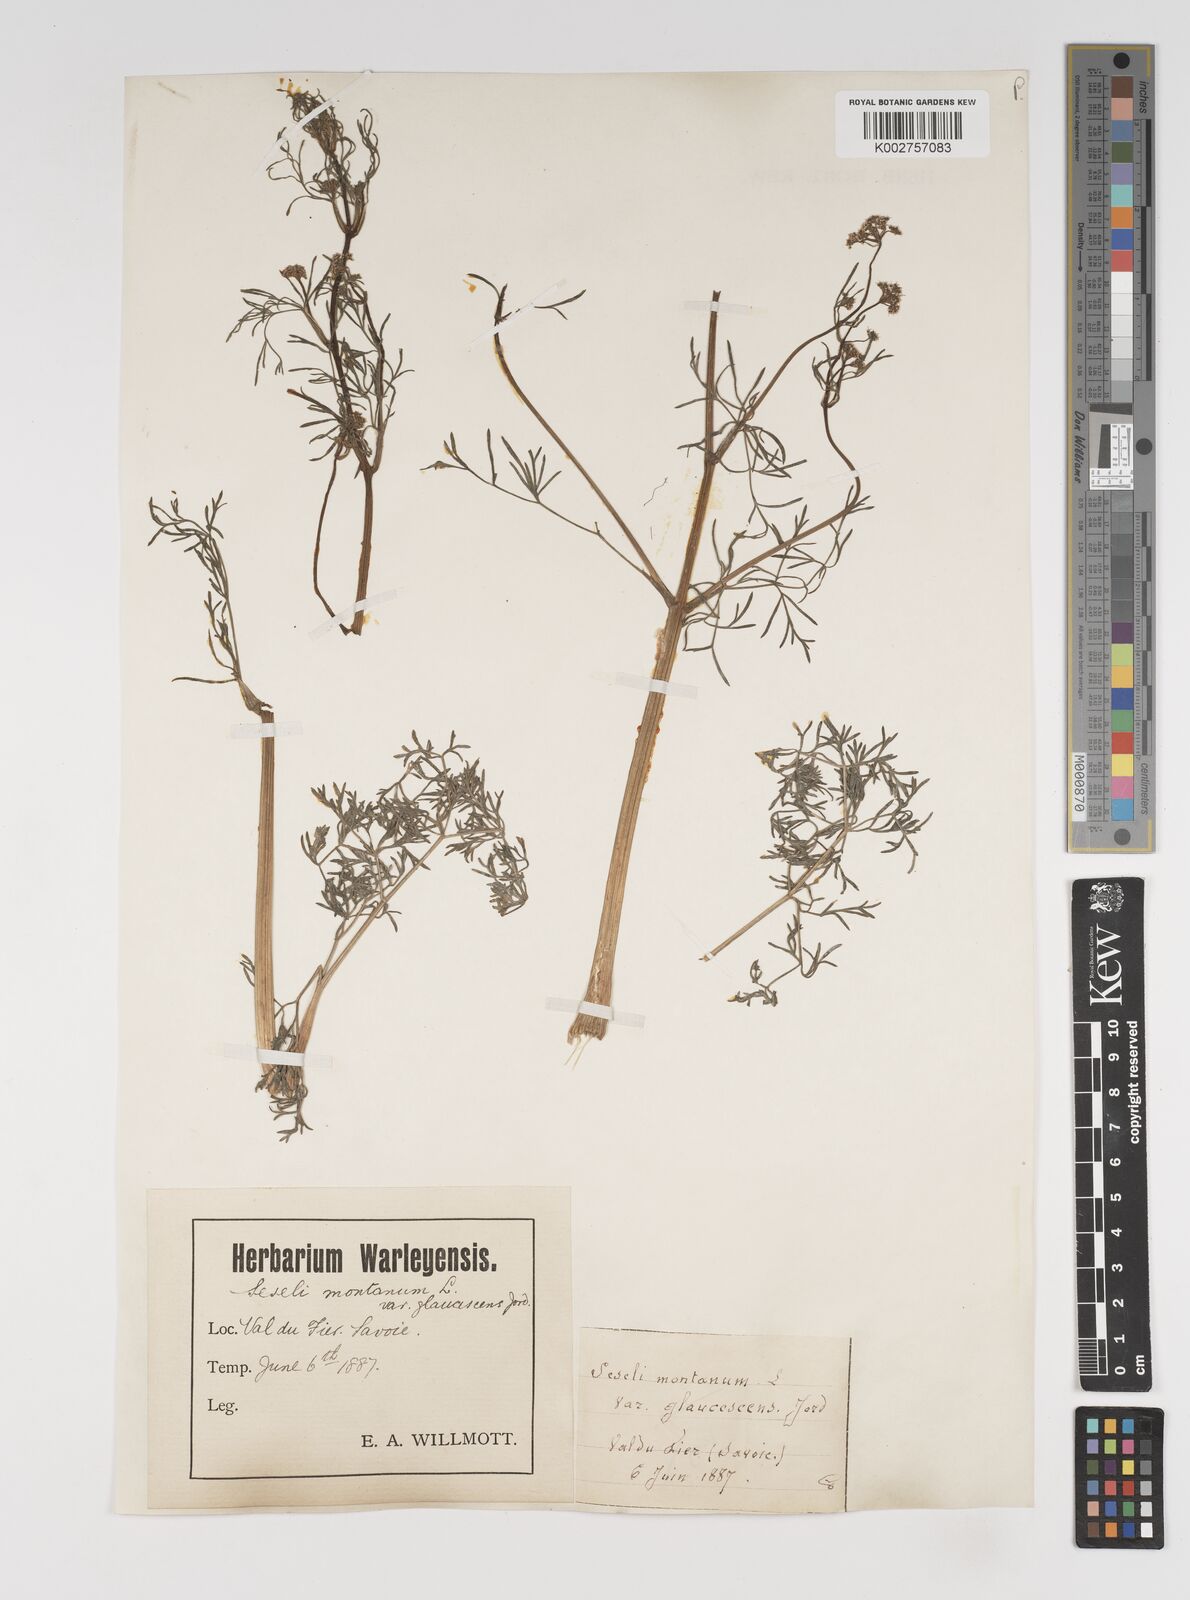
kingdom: Plantae
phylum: Tracheophyta
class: Magnoliopsida
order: Apiales
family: Apiaceae
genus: Seseli
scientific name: Seseli montanum
